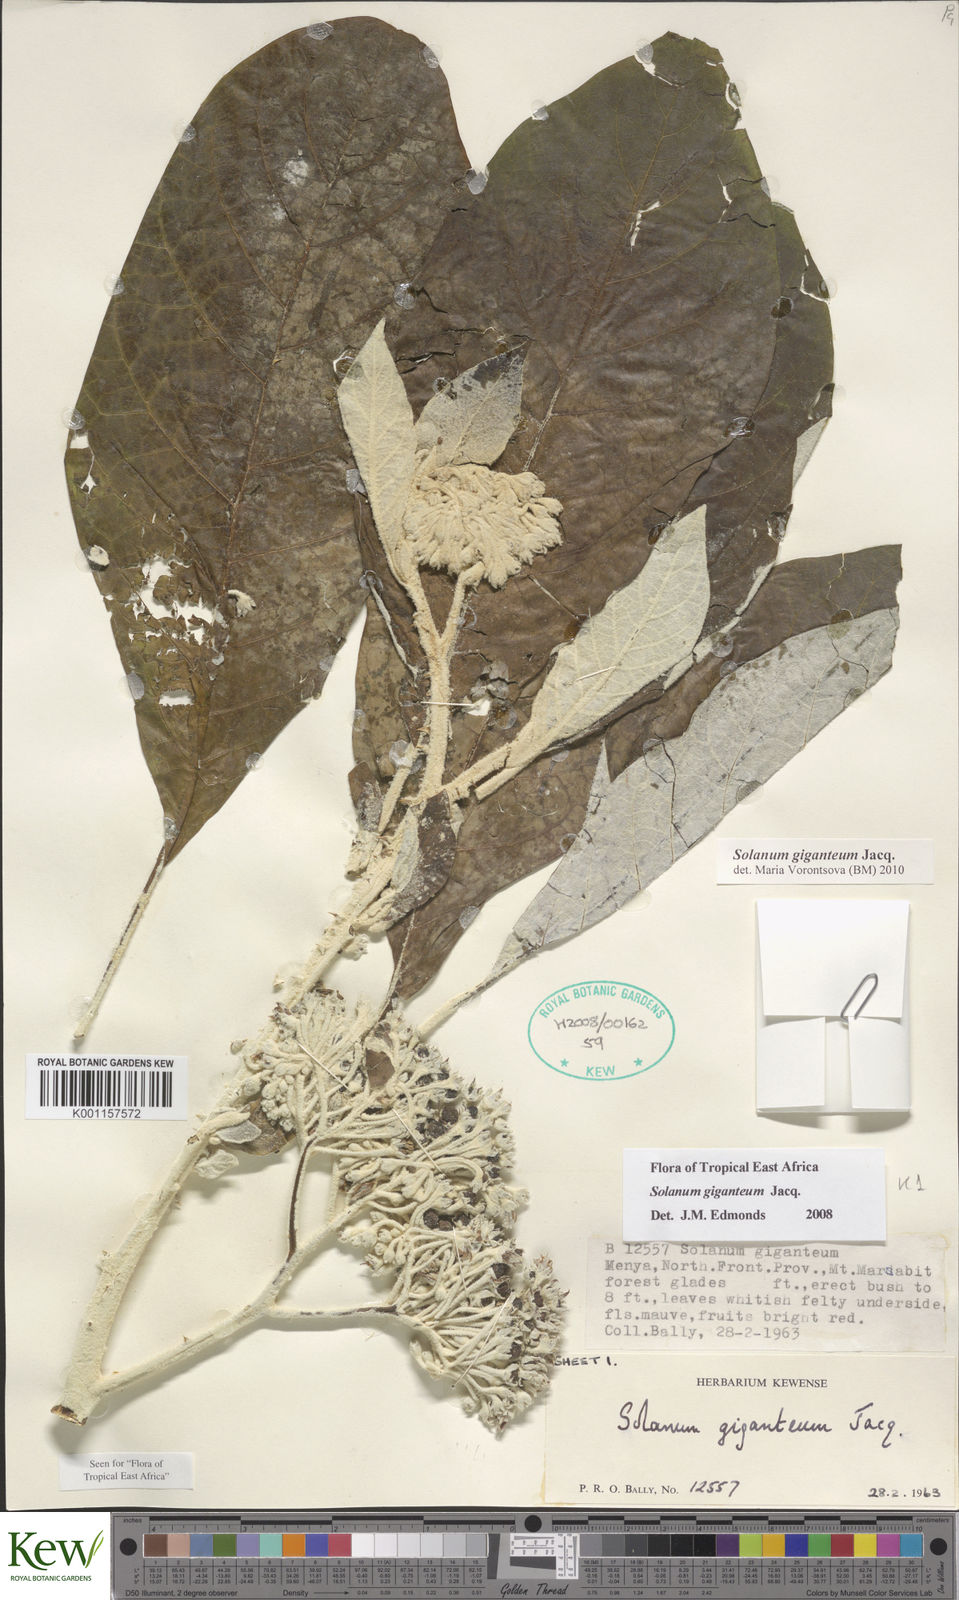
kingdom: Plantae
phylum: Tracheophyta
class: Magnoliopsida
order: Solanales
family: Solanaceae
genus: Solanum
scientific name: Solanum giganteum
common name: Healing-leaf-tree
